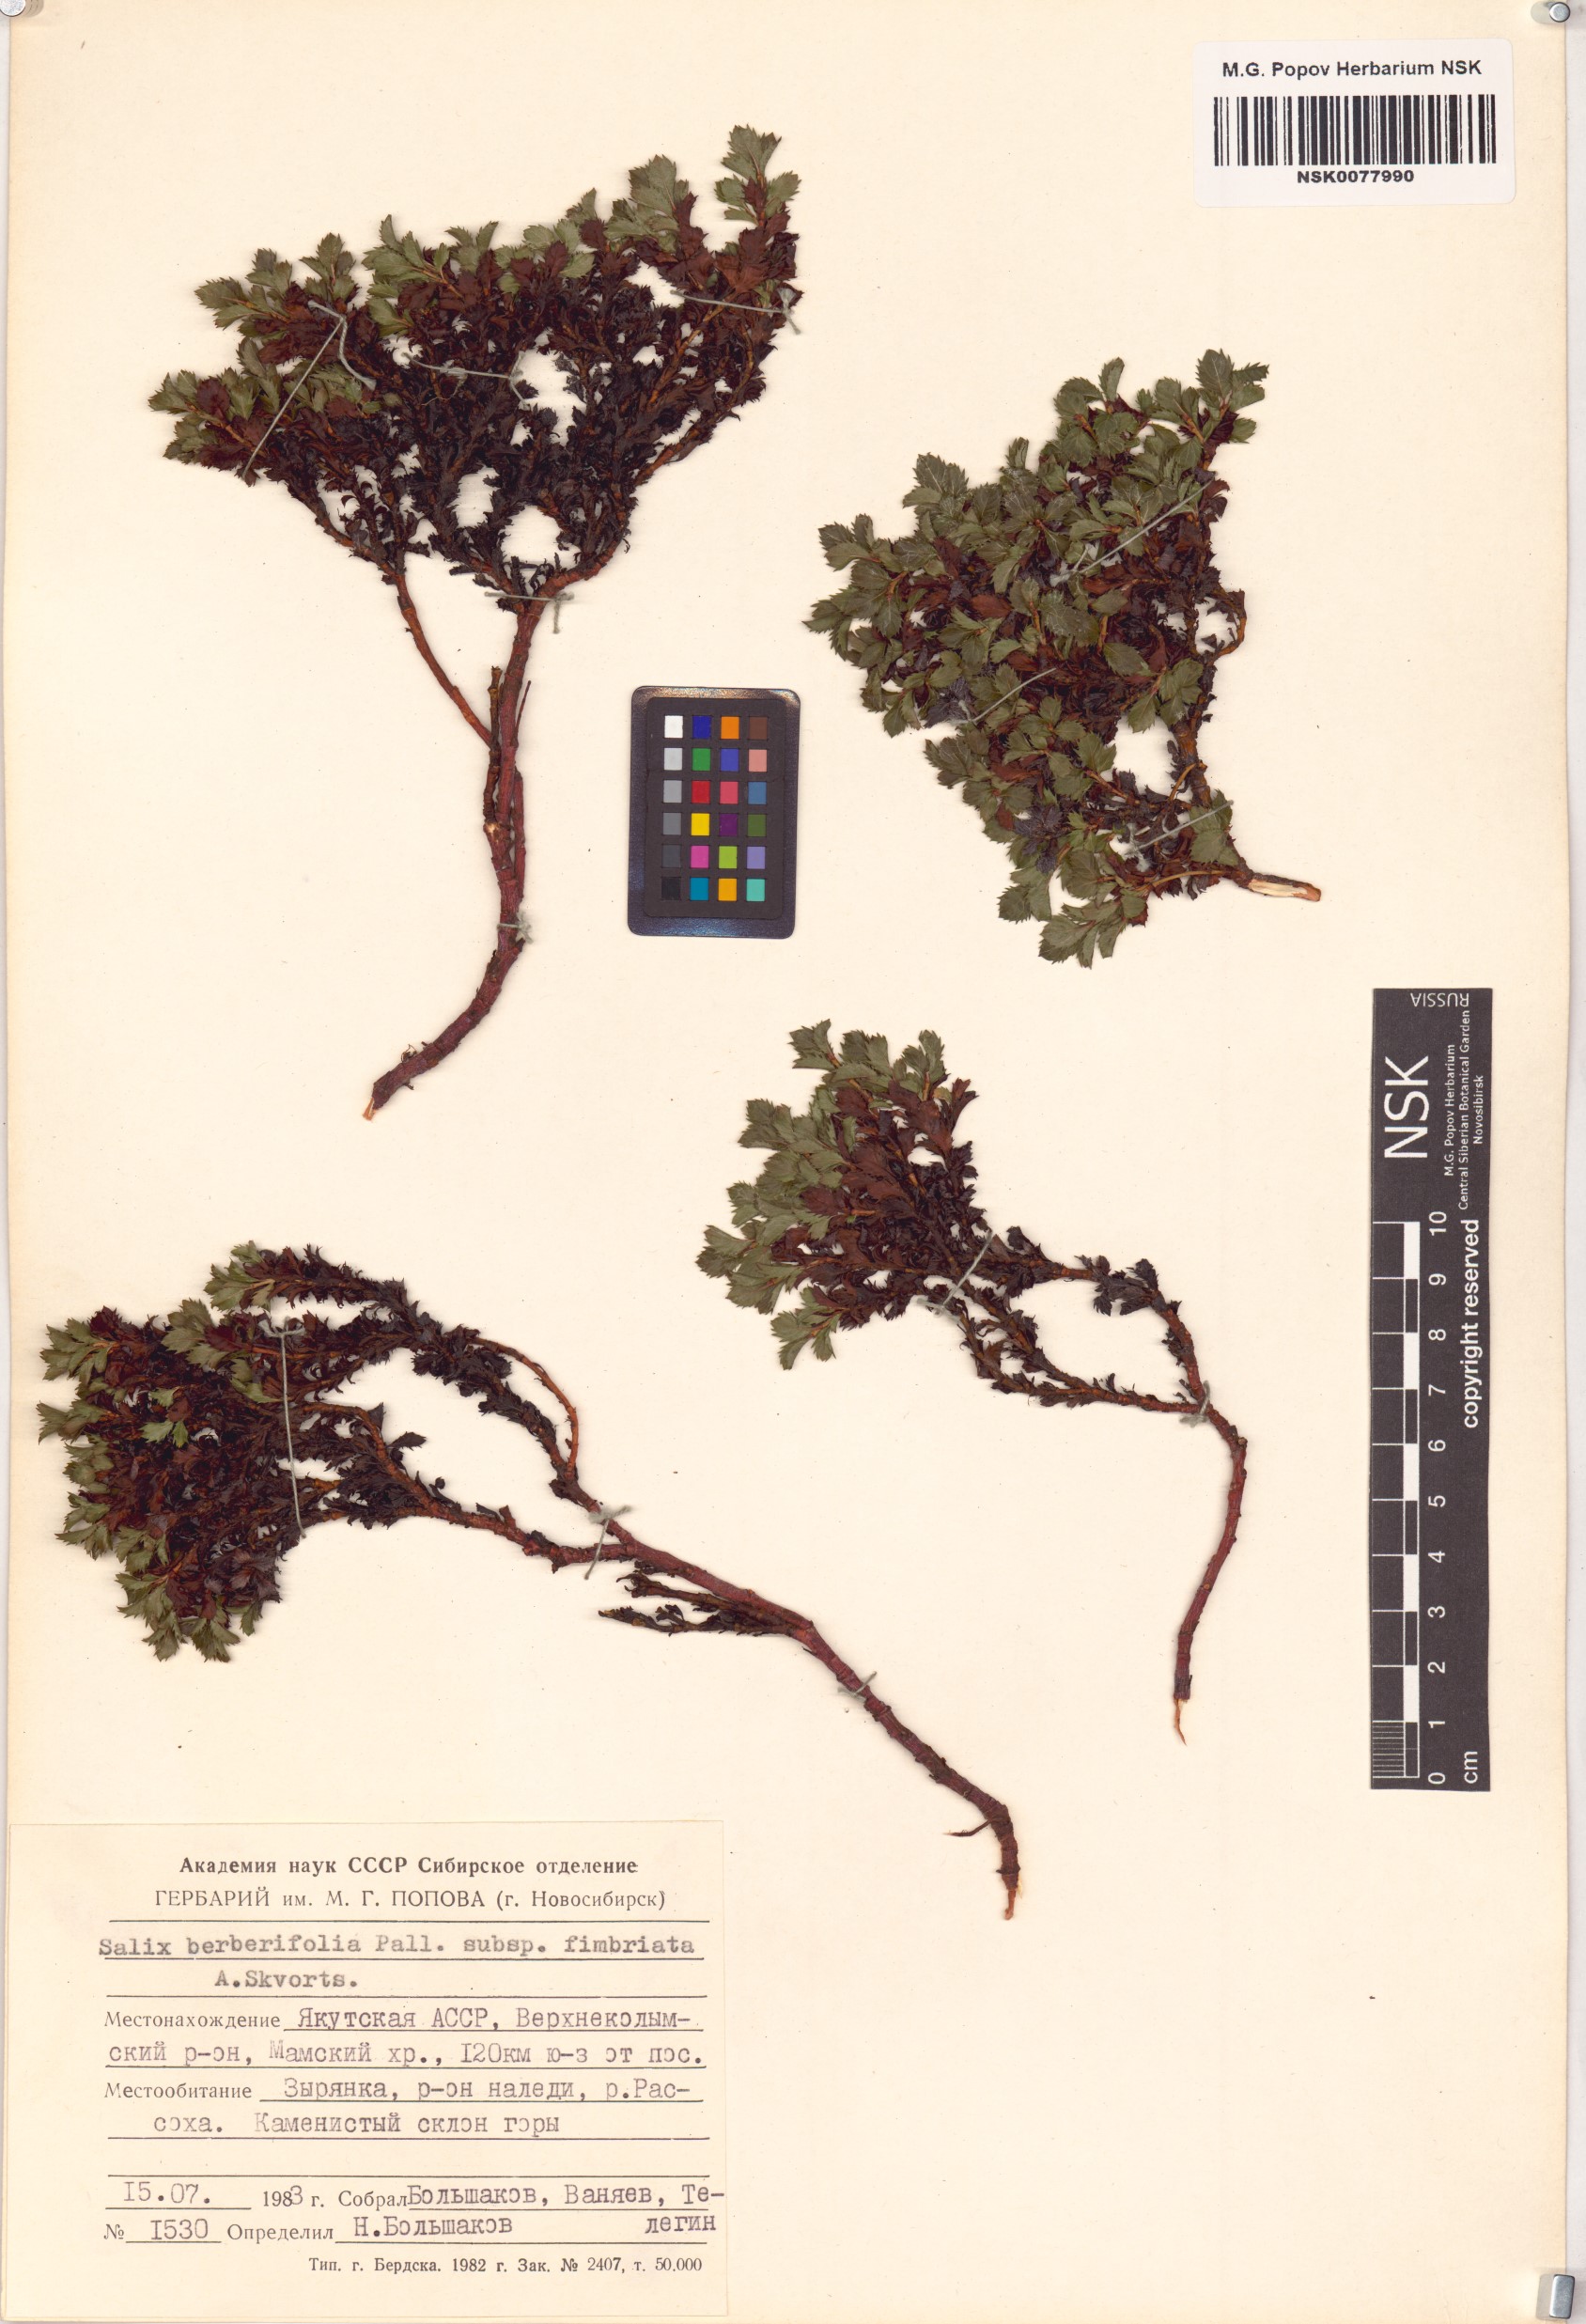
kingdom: Plantae
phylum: Tracheophyta
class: Magnoliopsida
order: Malpighiales
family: Salicaceae
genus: Salix
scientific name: Salix berberifolia
